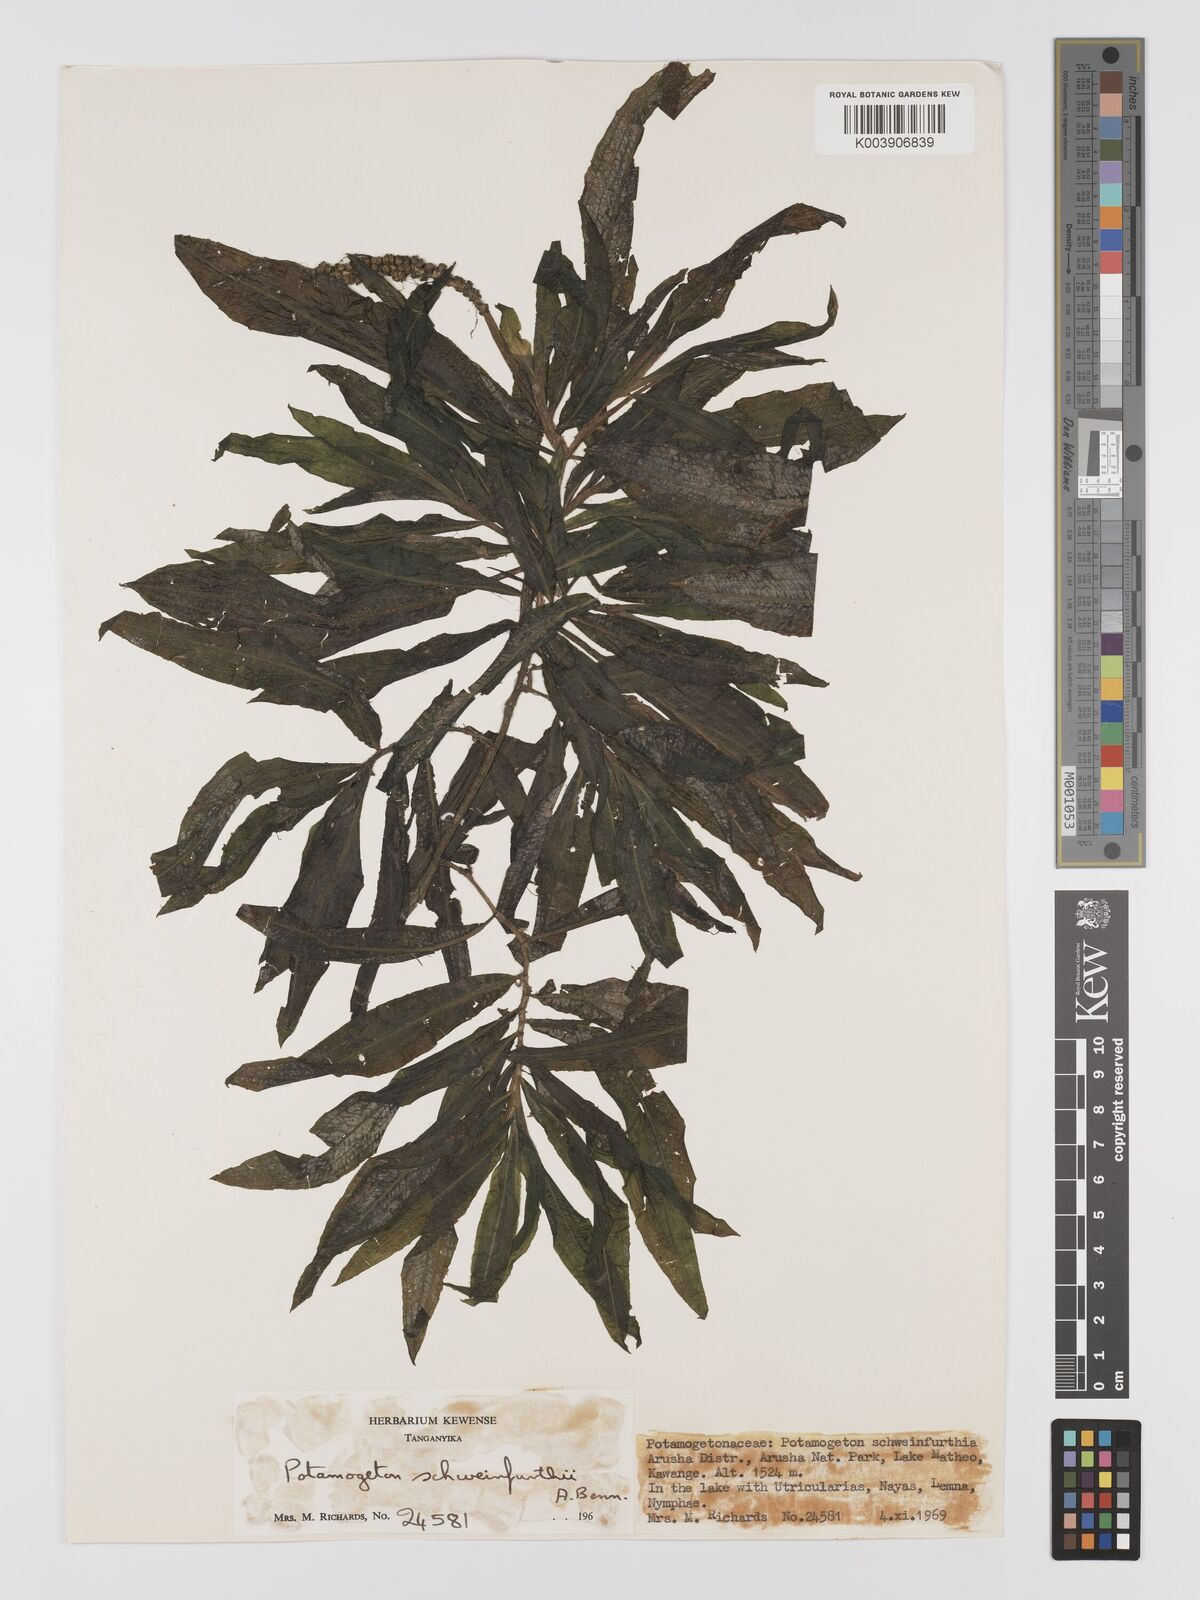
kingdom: Plantae
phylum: Tracheophyta
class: Liliopsida
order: Alismatales
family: Potamogetonaceae
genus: Potamogeton
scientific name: Potamogeton schweinfurthii
